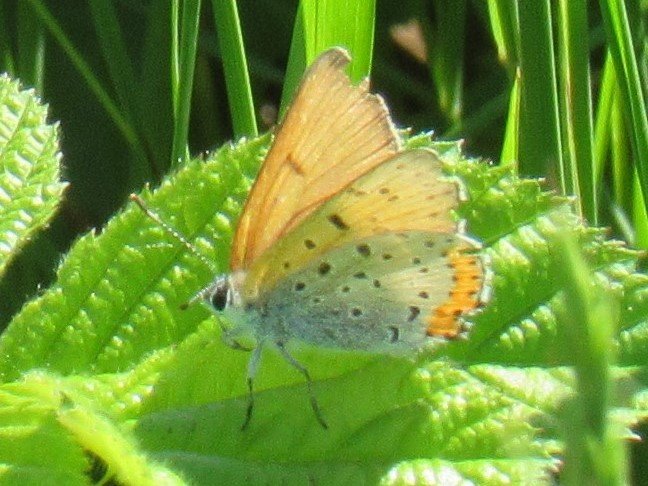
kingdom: Animalia
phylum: Arthropoda
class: Insecta
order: Lepidoptera
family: Sesiidae
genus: Sesia
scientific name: Sesia Lycaena hyllus
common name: Bronze Copper
